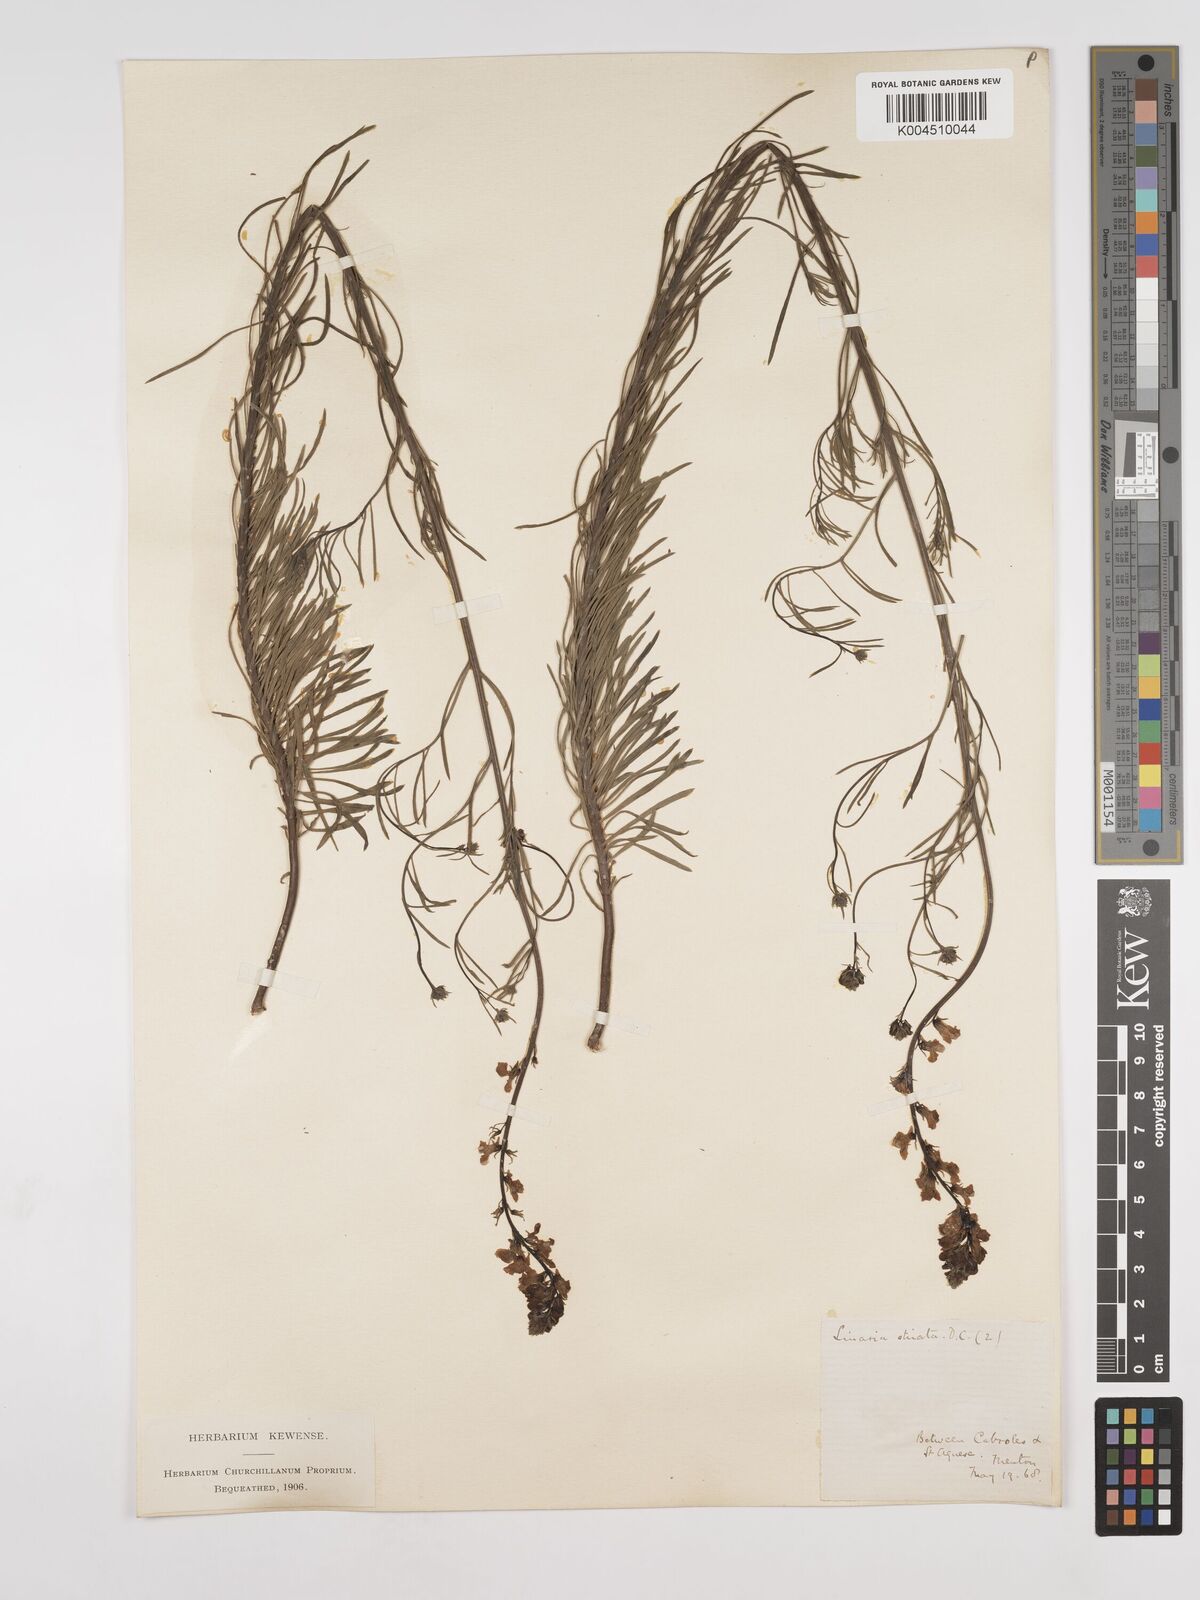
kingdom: Plantae
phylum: Tracheophyta
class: Magnoliopsida
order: Lamiales
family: Plantaginaceae
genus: Linaria
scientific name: Linaria repens
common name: Pale toadflax
